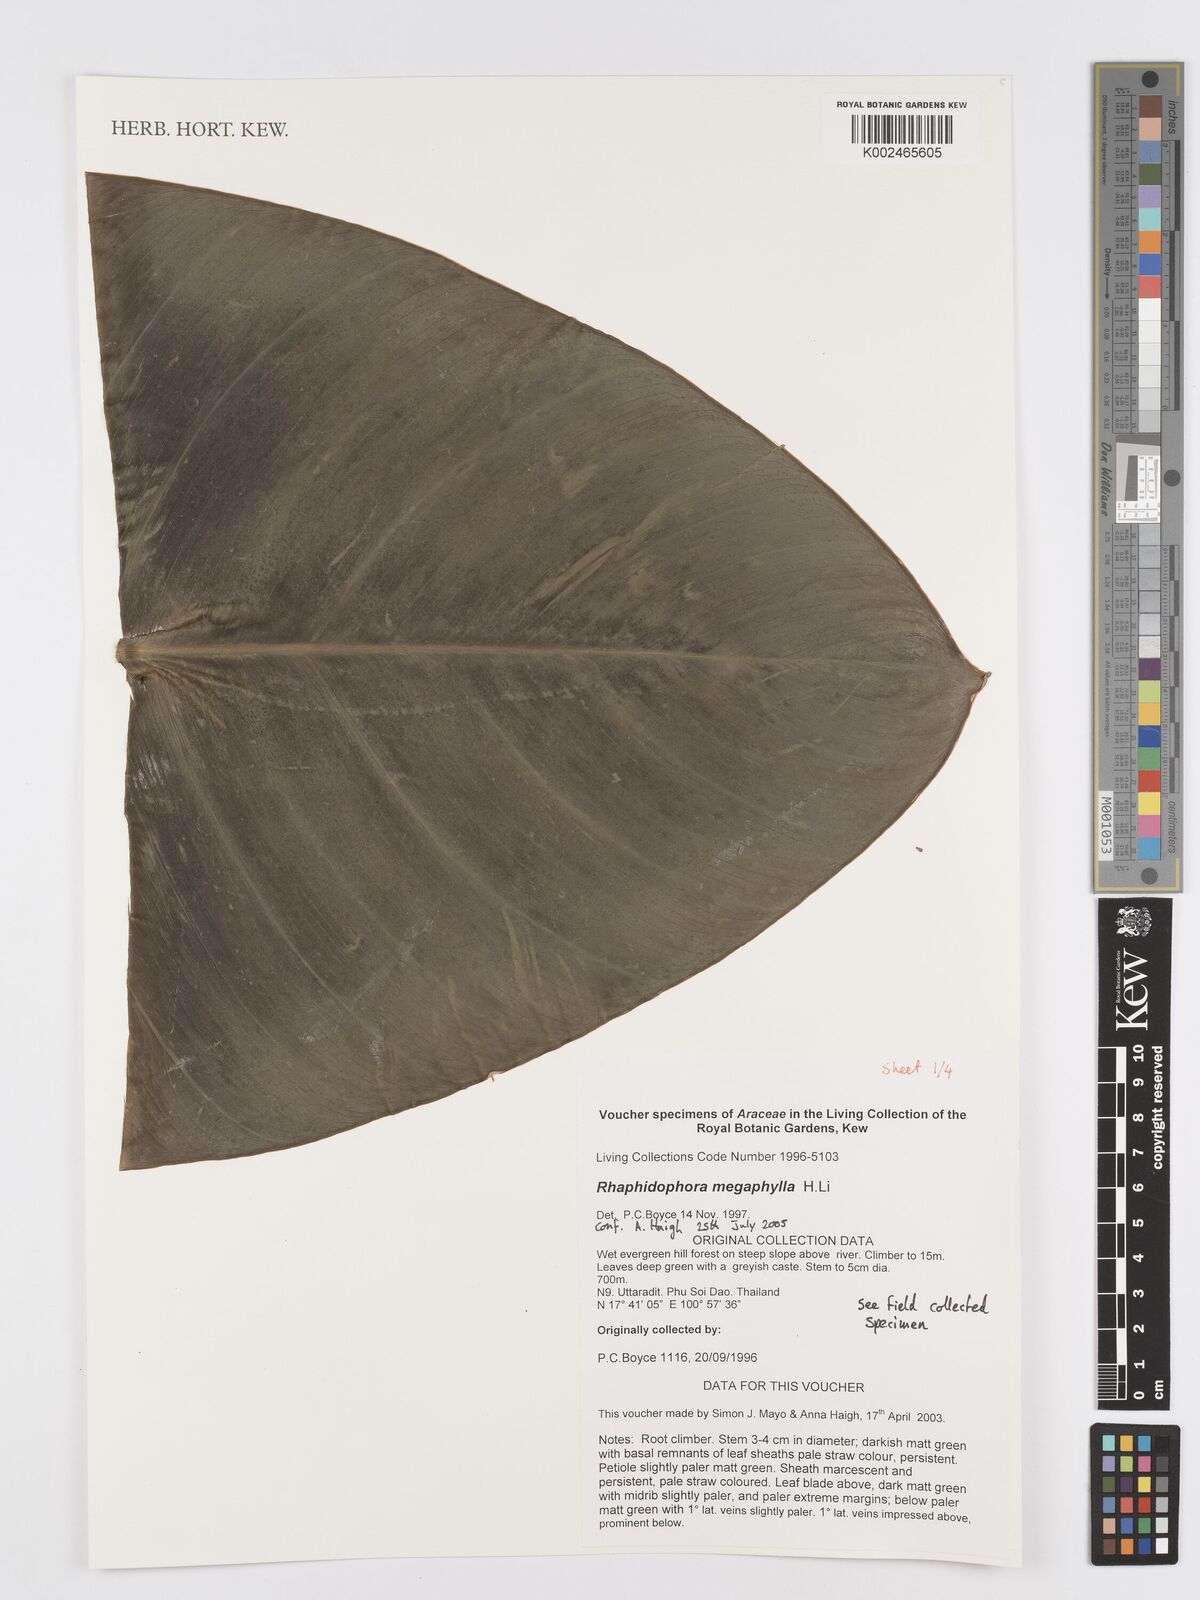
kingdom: Plantae
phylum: Tracheophyta
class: Liliopsida
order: Alismatales
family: Araceae
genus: Rhaphidophora
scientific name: Rhaphidophora megaphylla
